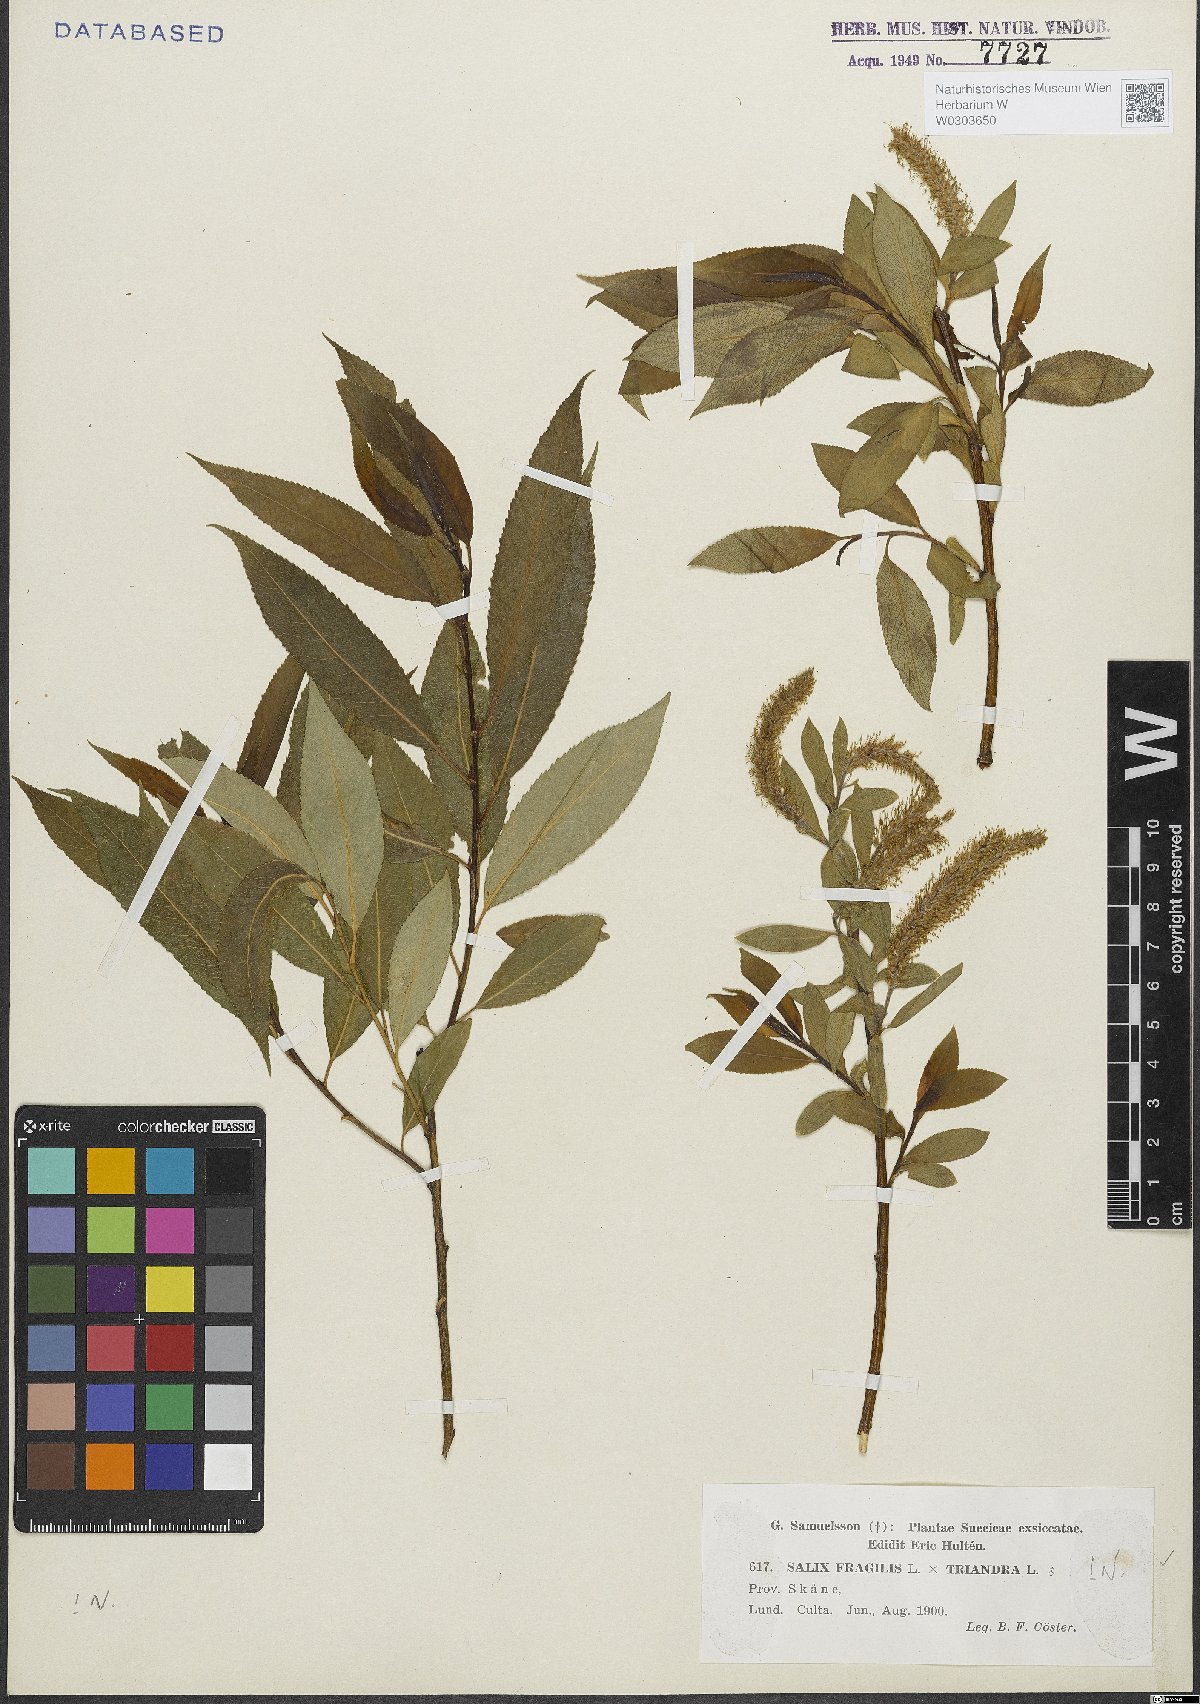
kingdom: Plantae
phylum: Tracheophyta
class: Magnoliopsida
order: Malpighiales
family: Salicaceae
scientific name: Salicaceae
